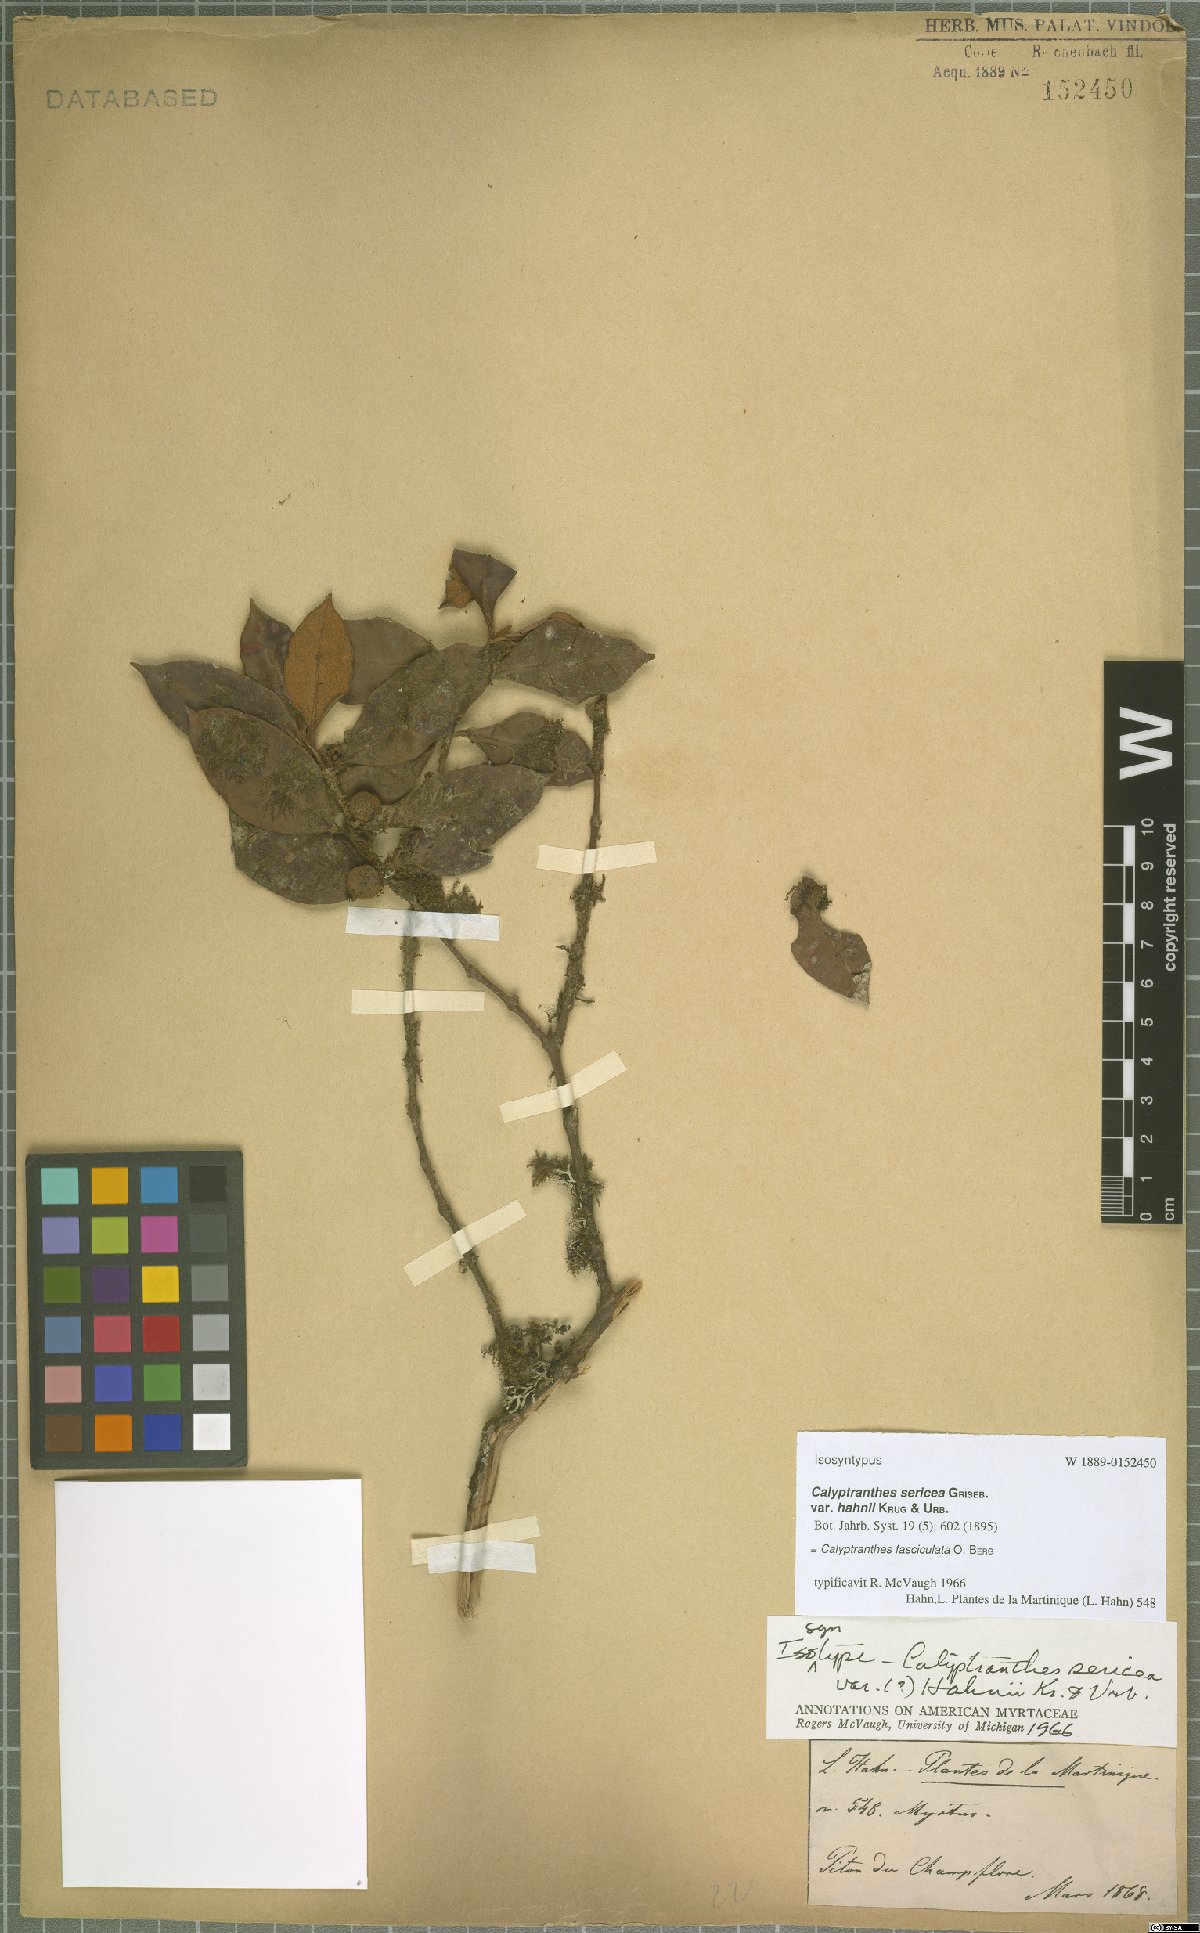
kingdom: Plantae
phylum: Tracheophyta
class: Magnoliopsida
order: Myrtales
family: Myrtaceae
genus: Myrcia
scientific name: Myrcia fasciculata
